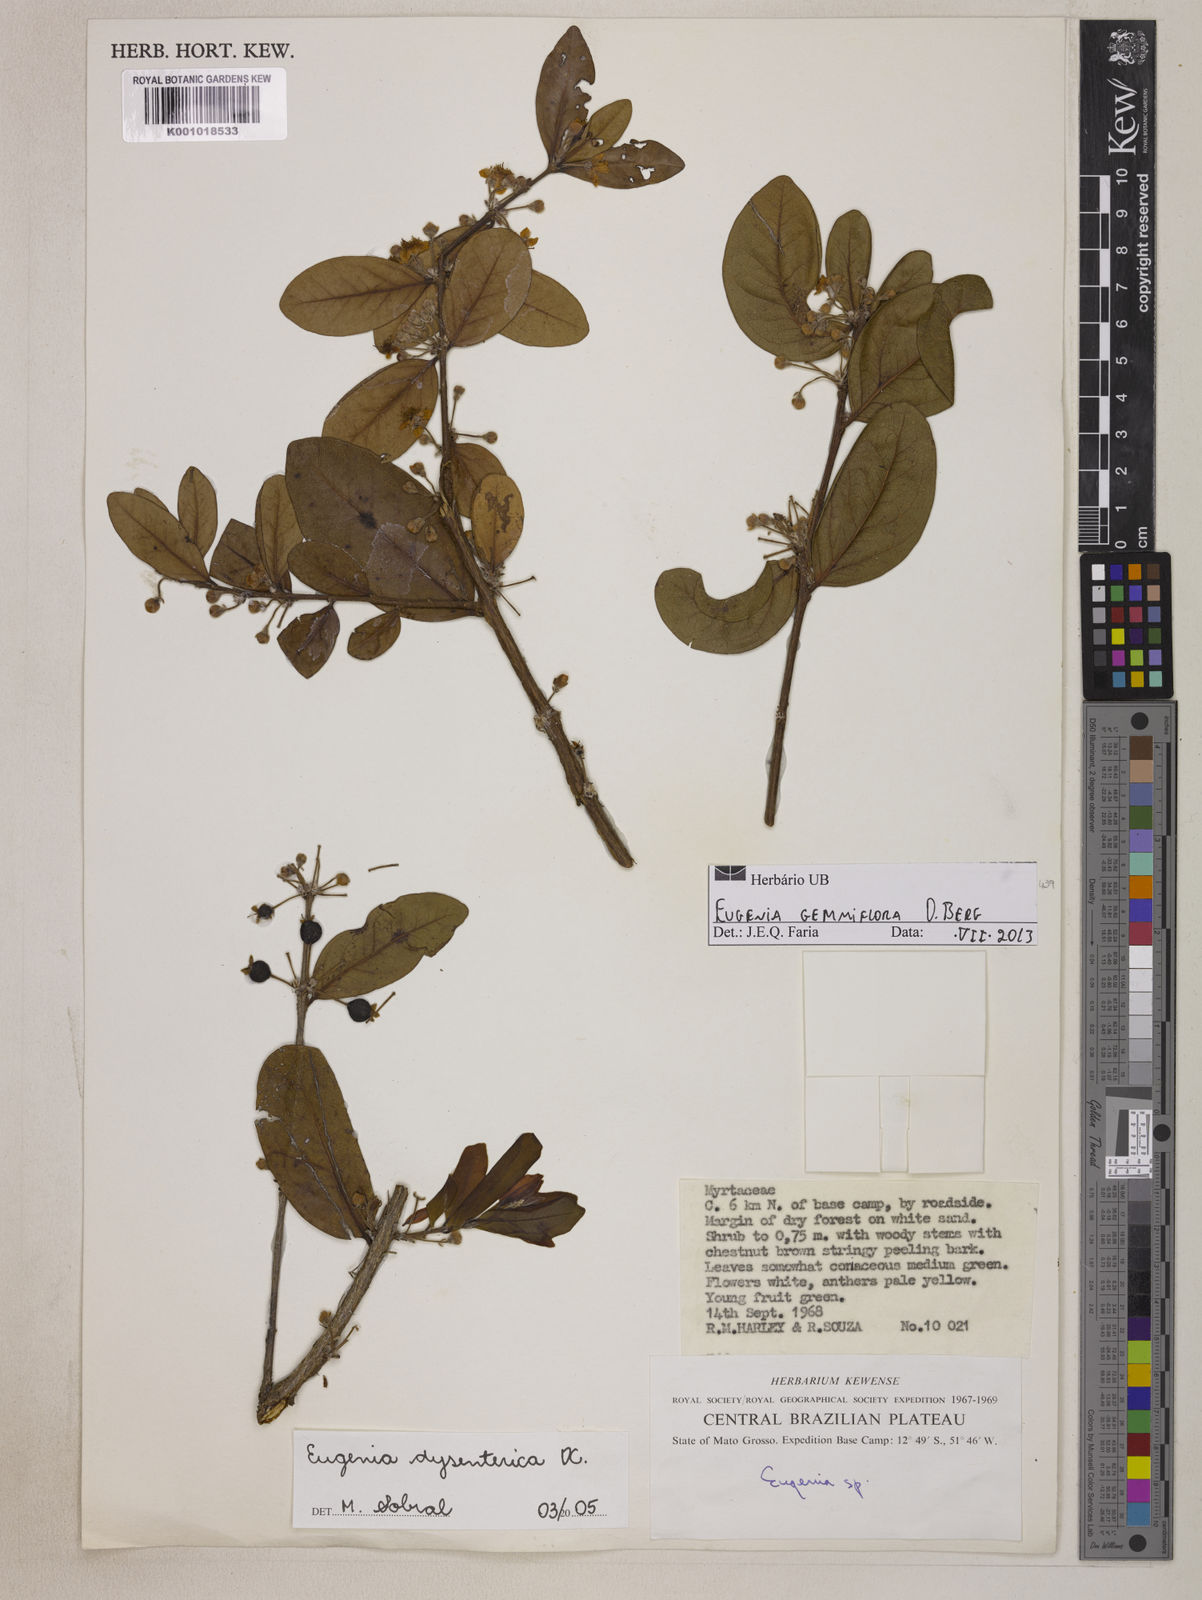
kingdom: Plantae
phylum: Tracheophyta
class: Magnoliopsida
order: Myrtales
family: Myrtaceae
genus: Eugenia
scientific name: Eugenia dysenterica
